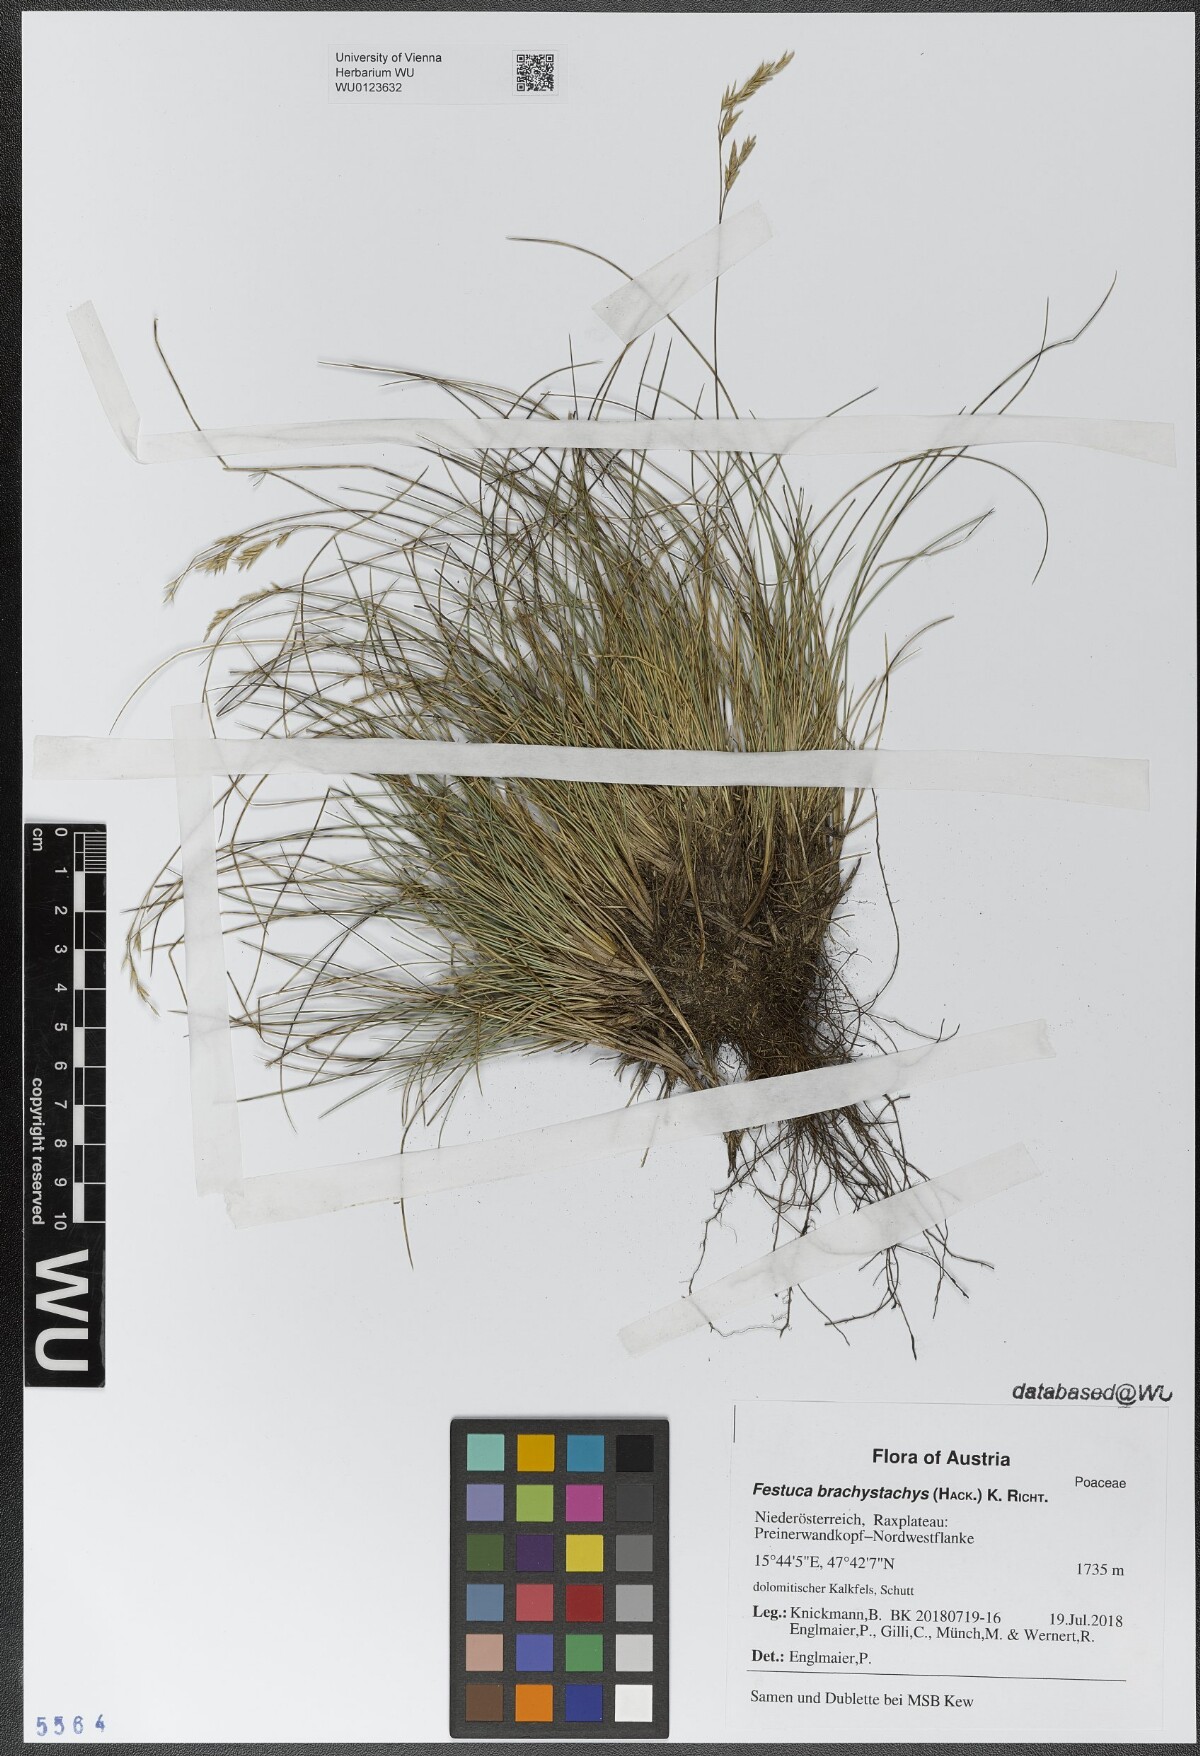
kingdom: Plantae
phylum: Tracheophyta
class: Liliopsida
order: Poales
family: Poaceae
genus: Festuca
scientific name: Festuca varia
